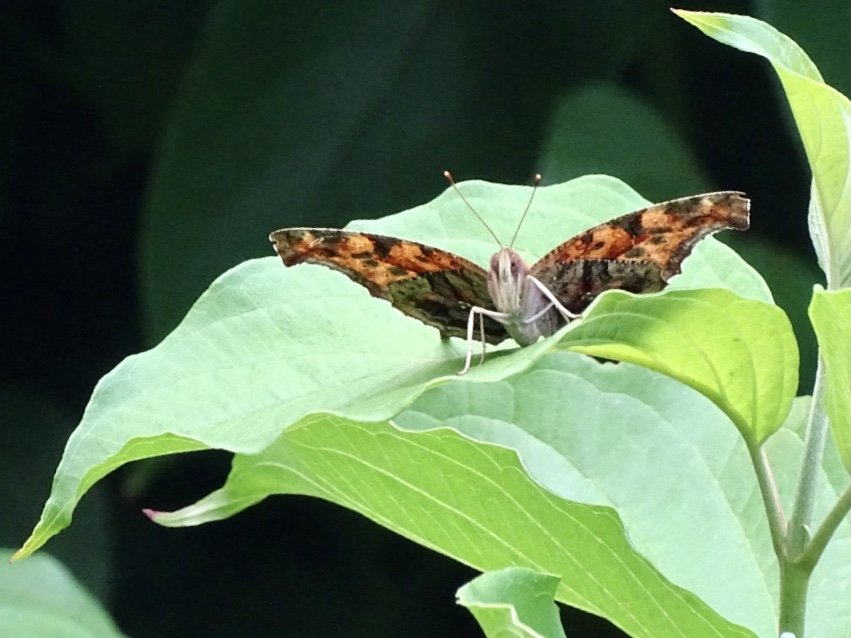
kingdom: Animalia
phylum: Arthropoda
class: Insecta
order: Lepidoptera
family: Nymphalidae
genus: Polygonia
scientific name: Polygonia interrogationis
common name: Question Mark
